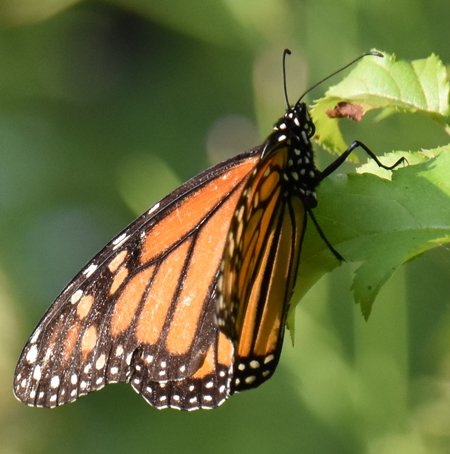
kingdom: Animalia
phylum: Arthropoda
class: Insecta
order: Lepidoptera
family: Nymphalidae
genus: Danaus
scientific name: Danaus plexippus
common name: Monarch
